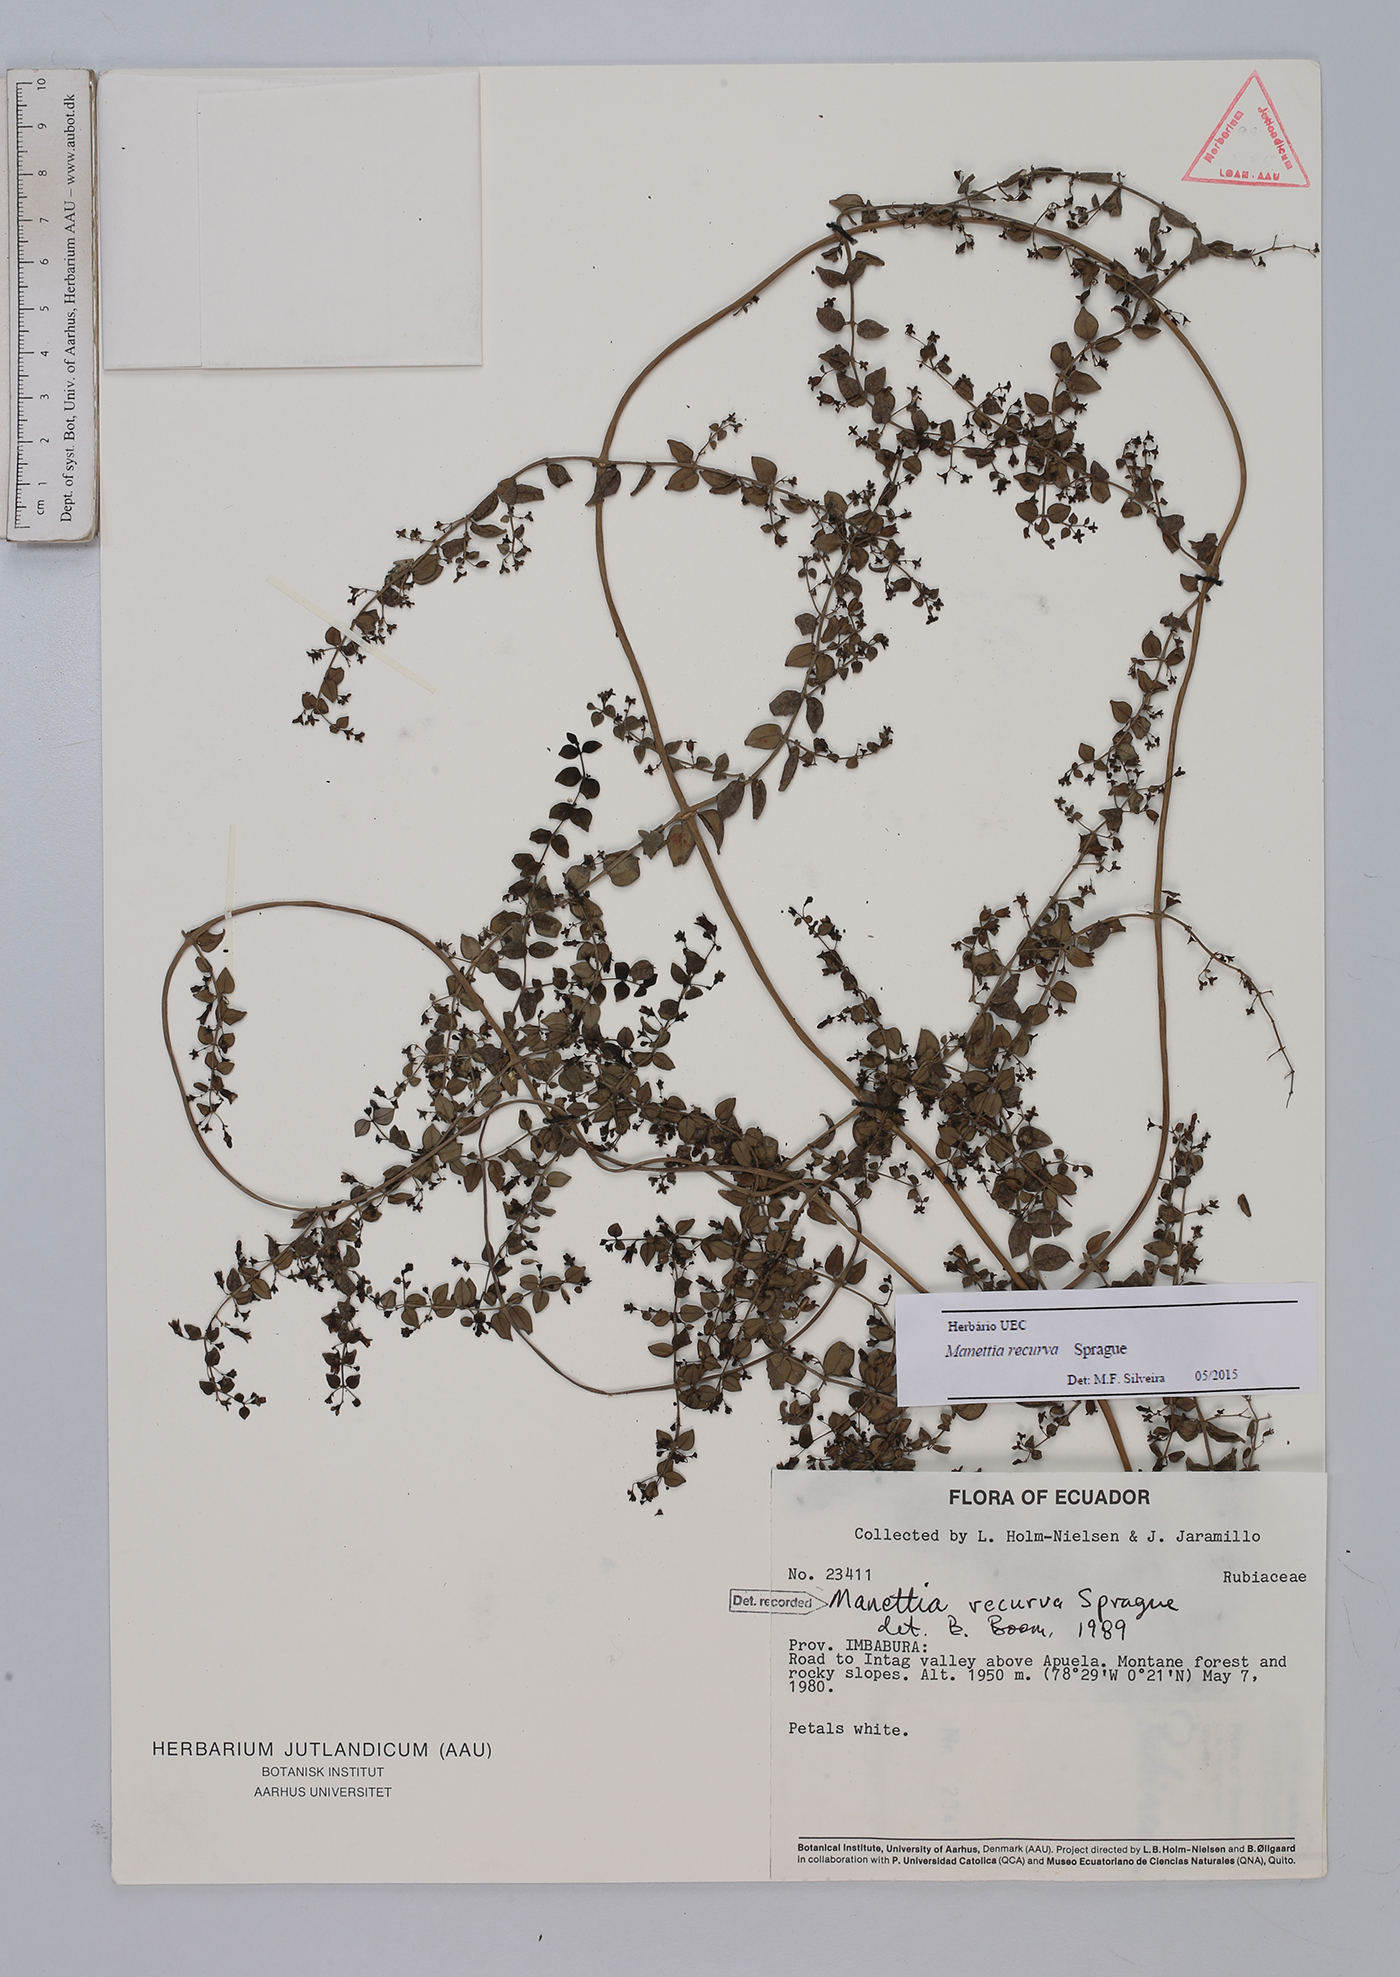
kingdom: Plantae
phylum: Tracheophyta
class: Magnoliopsida
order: Gentianales
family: Rubiaceae
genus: Manettia
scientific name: Manettia recurva
